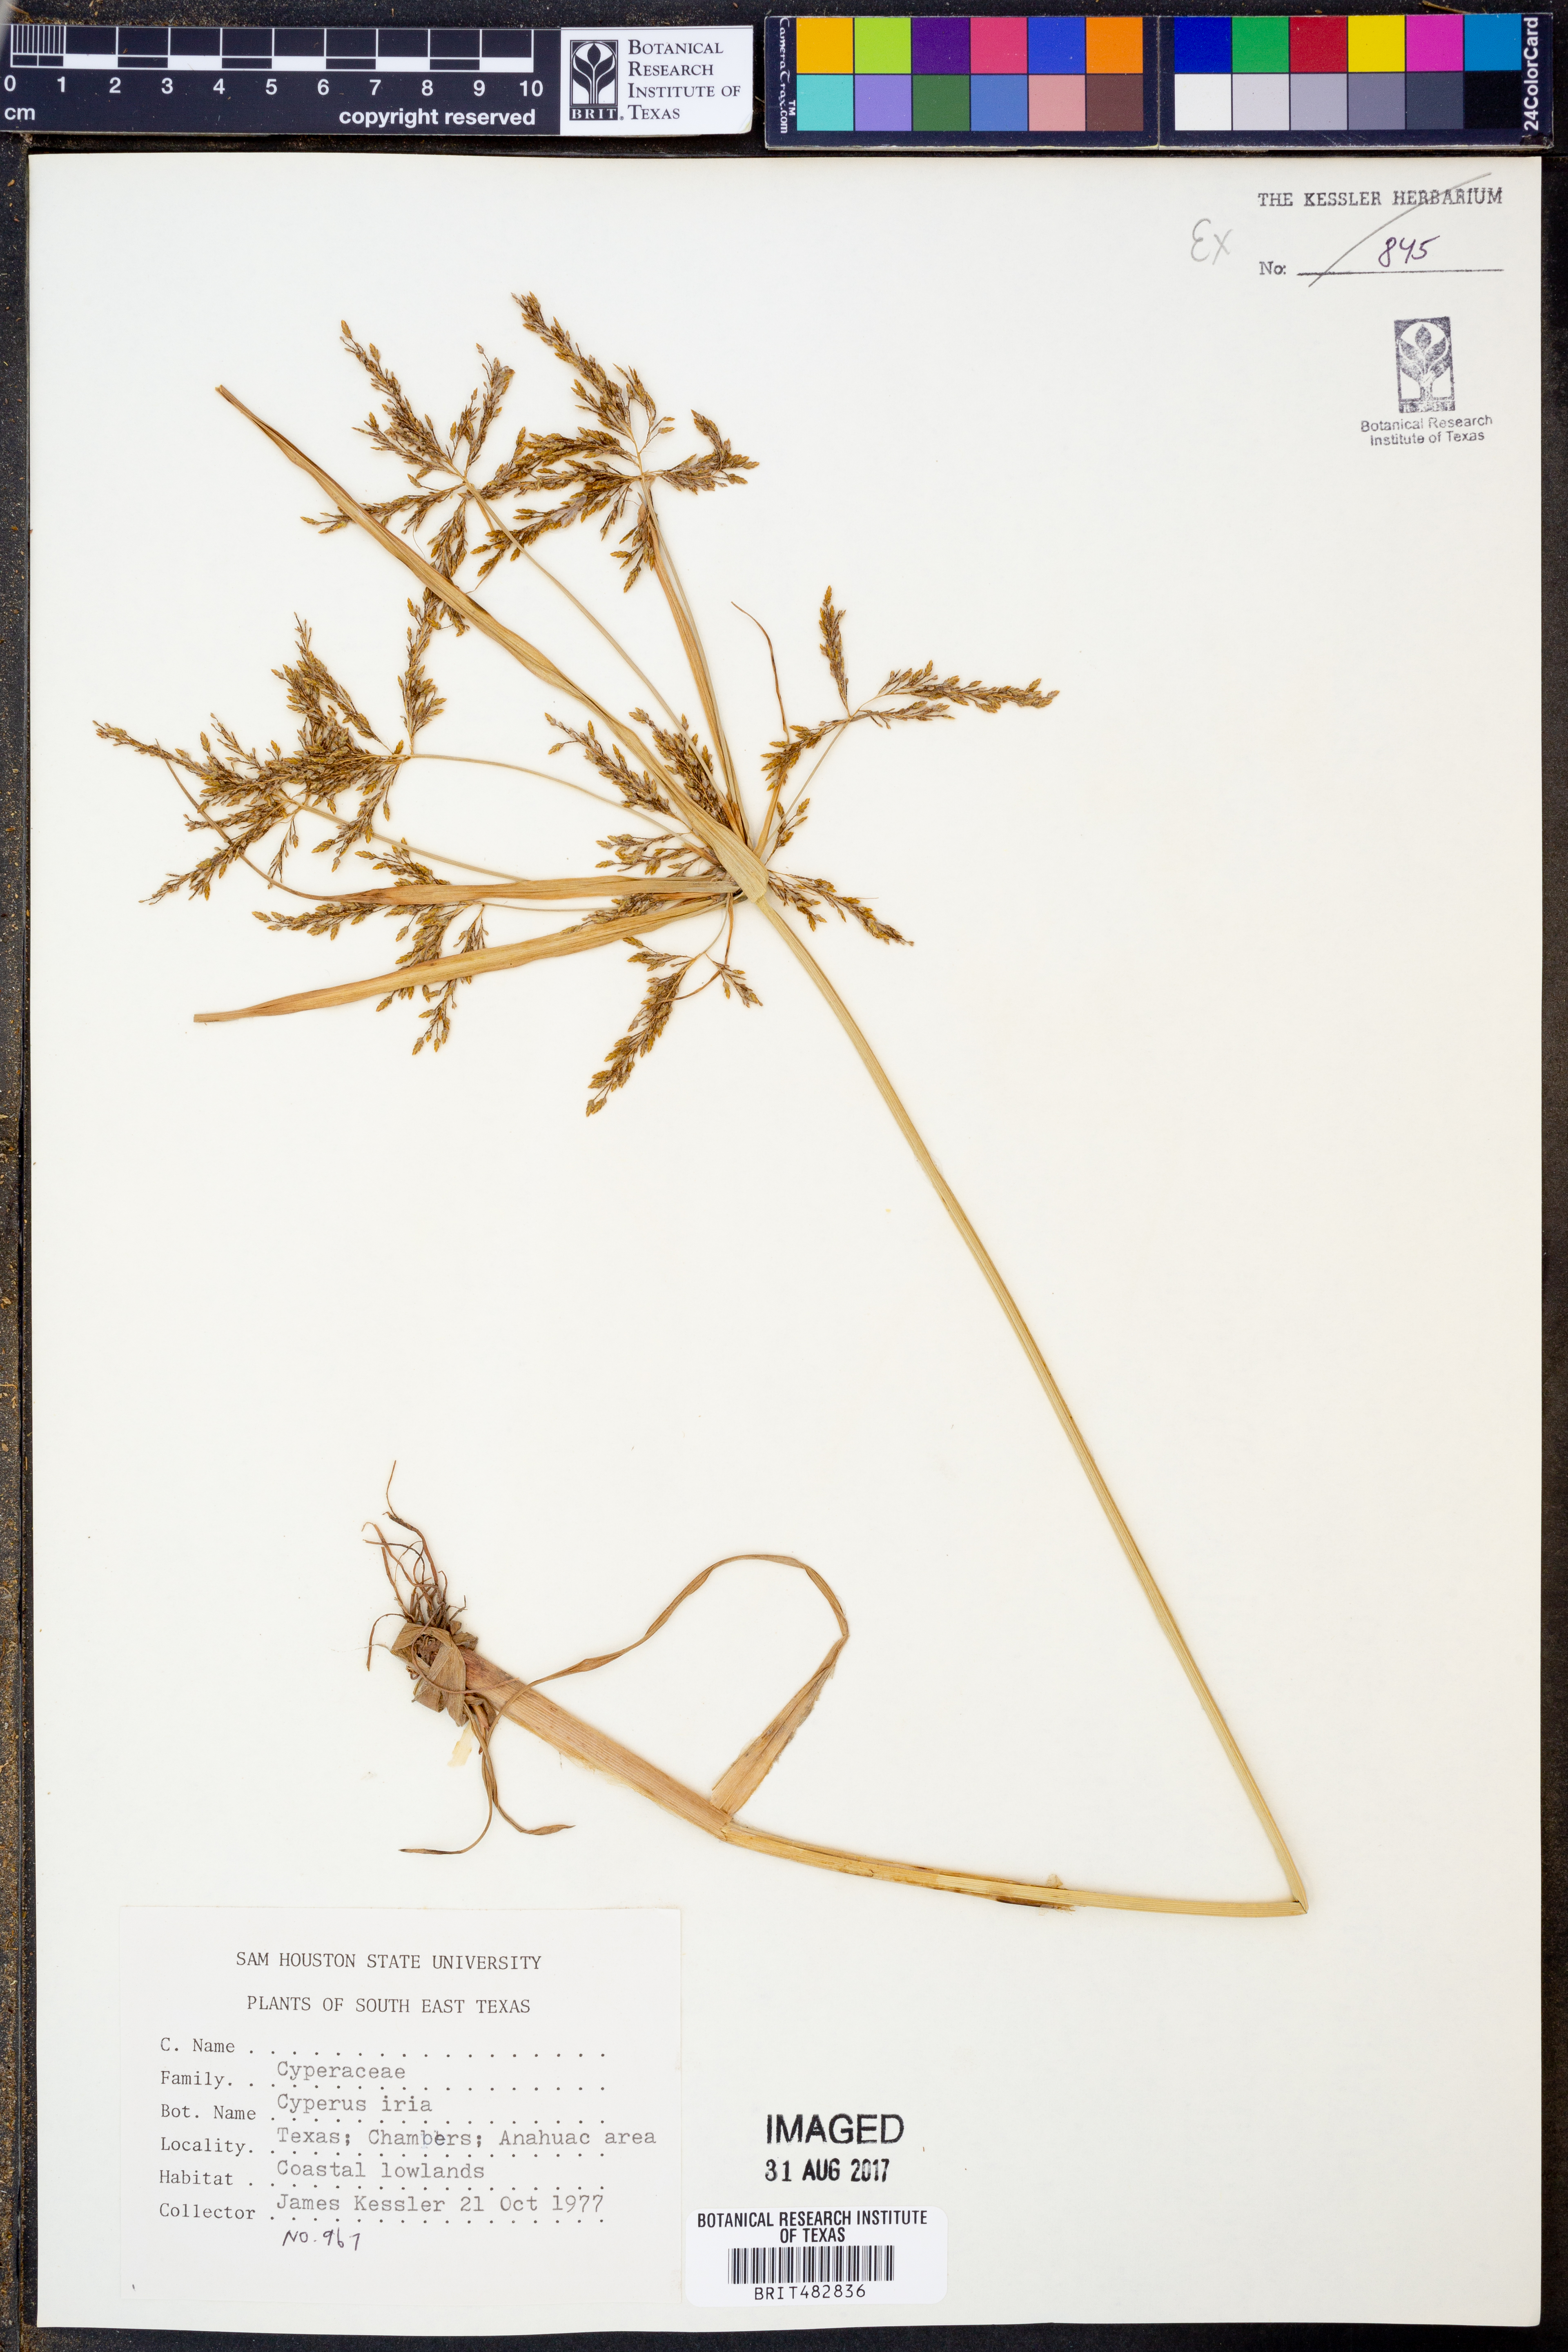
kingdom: Plantae
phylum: Tracheophyta
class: Liliopsida
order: Poales
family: Cyperaceae
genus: Cyperus
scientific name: Cyperus iria
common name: Ricefield flatsedge
